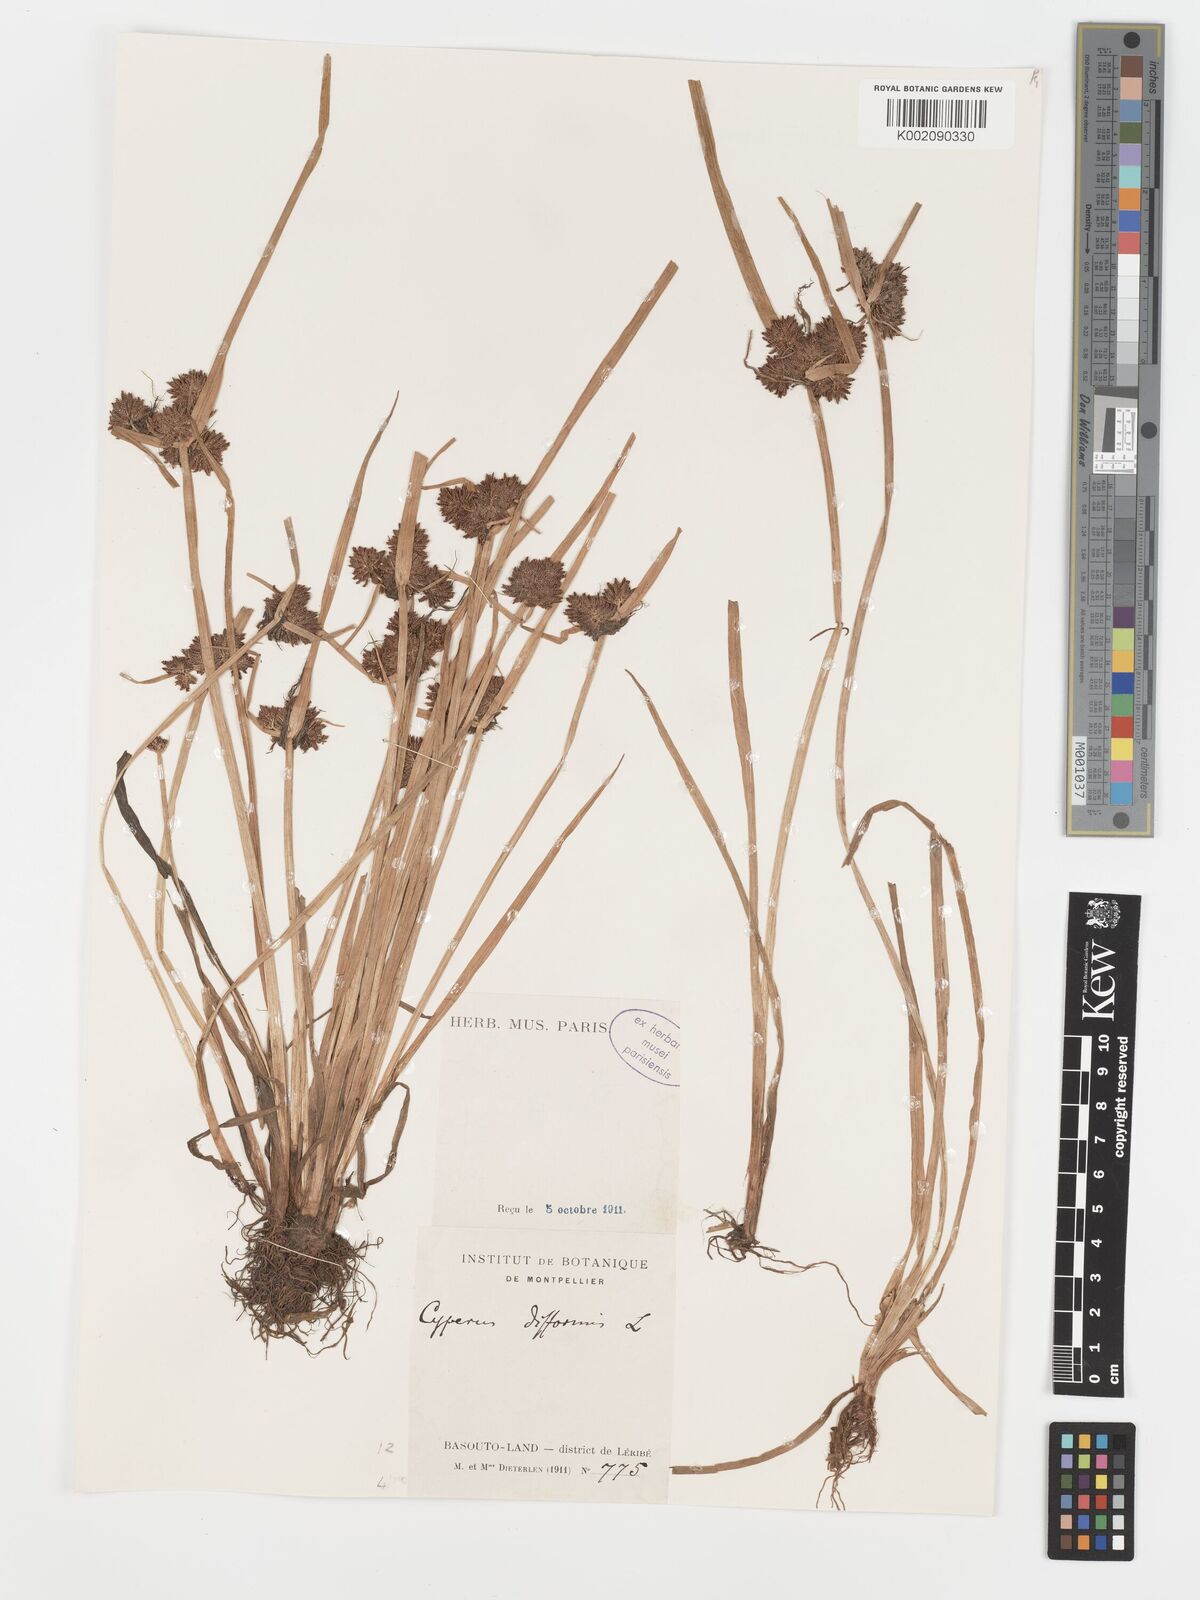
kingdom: Plantae
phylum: Tracheophyta
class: Liliopsida
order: Poales
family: Cyperaceae
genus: Cyperus
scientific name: Cyperus difformis
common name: Variable flatsedge
